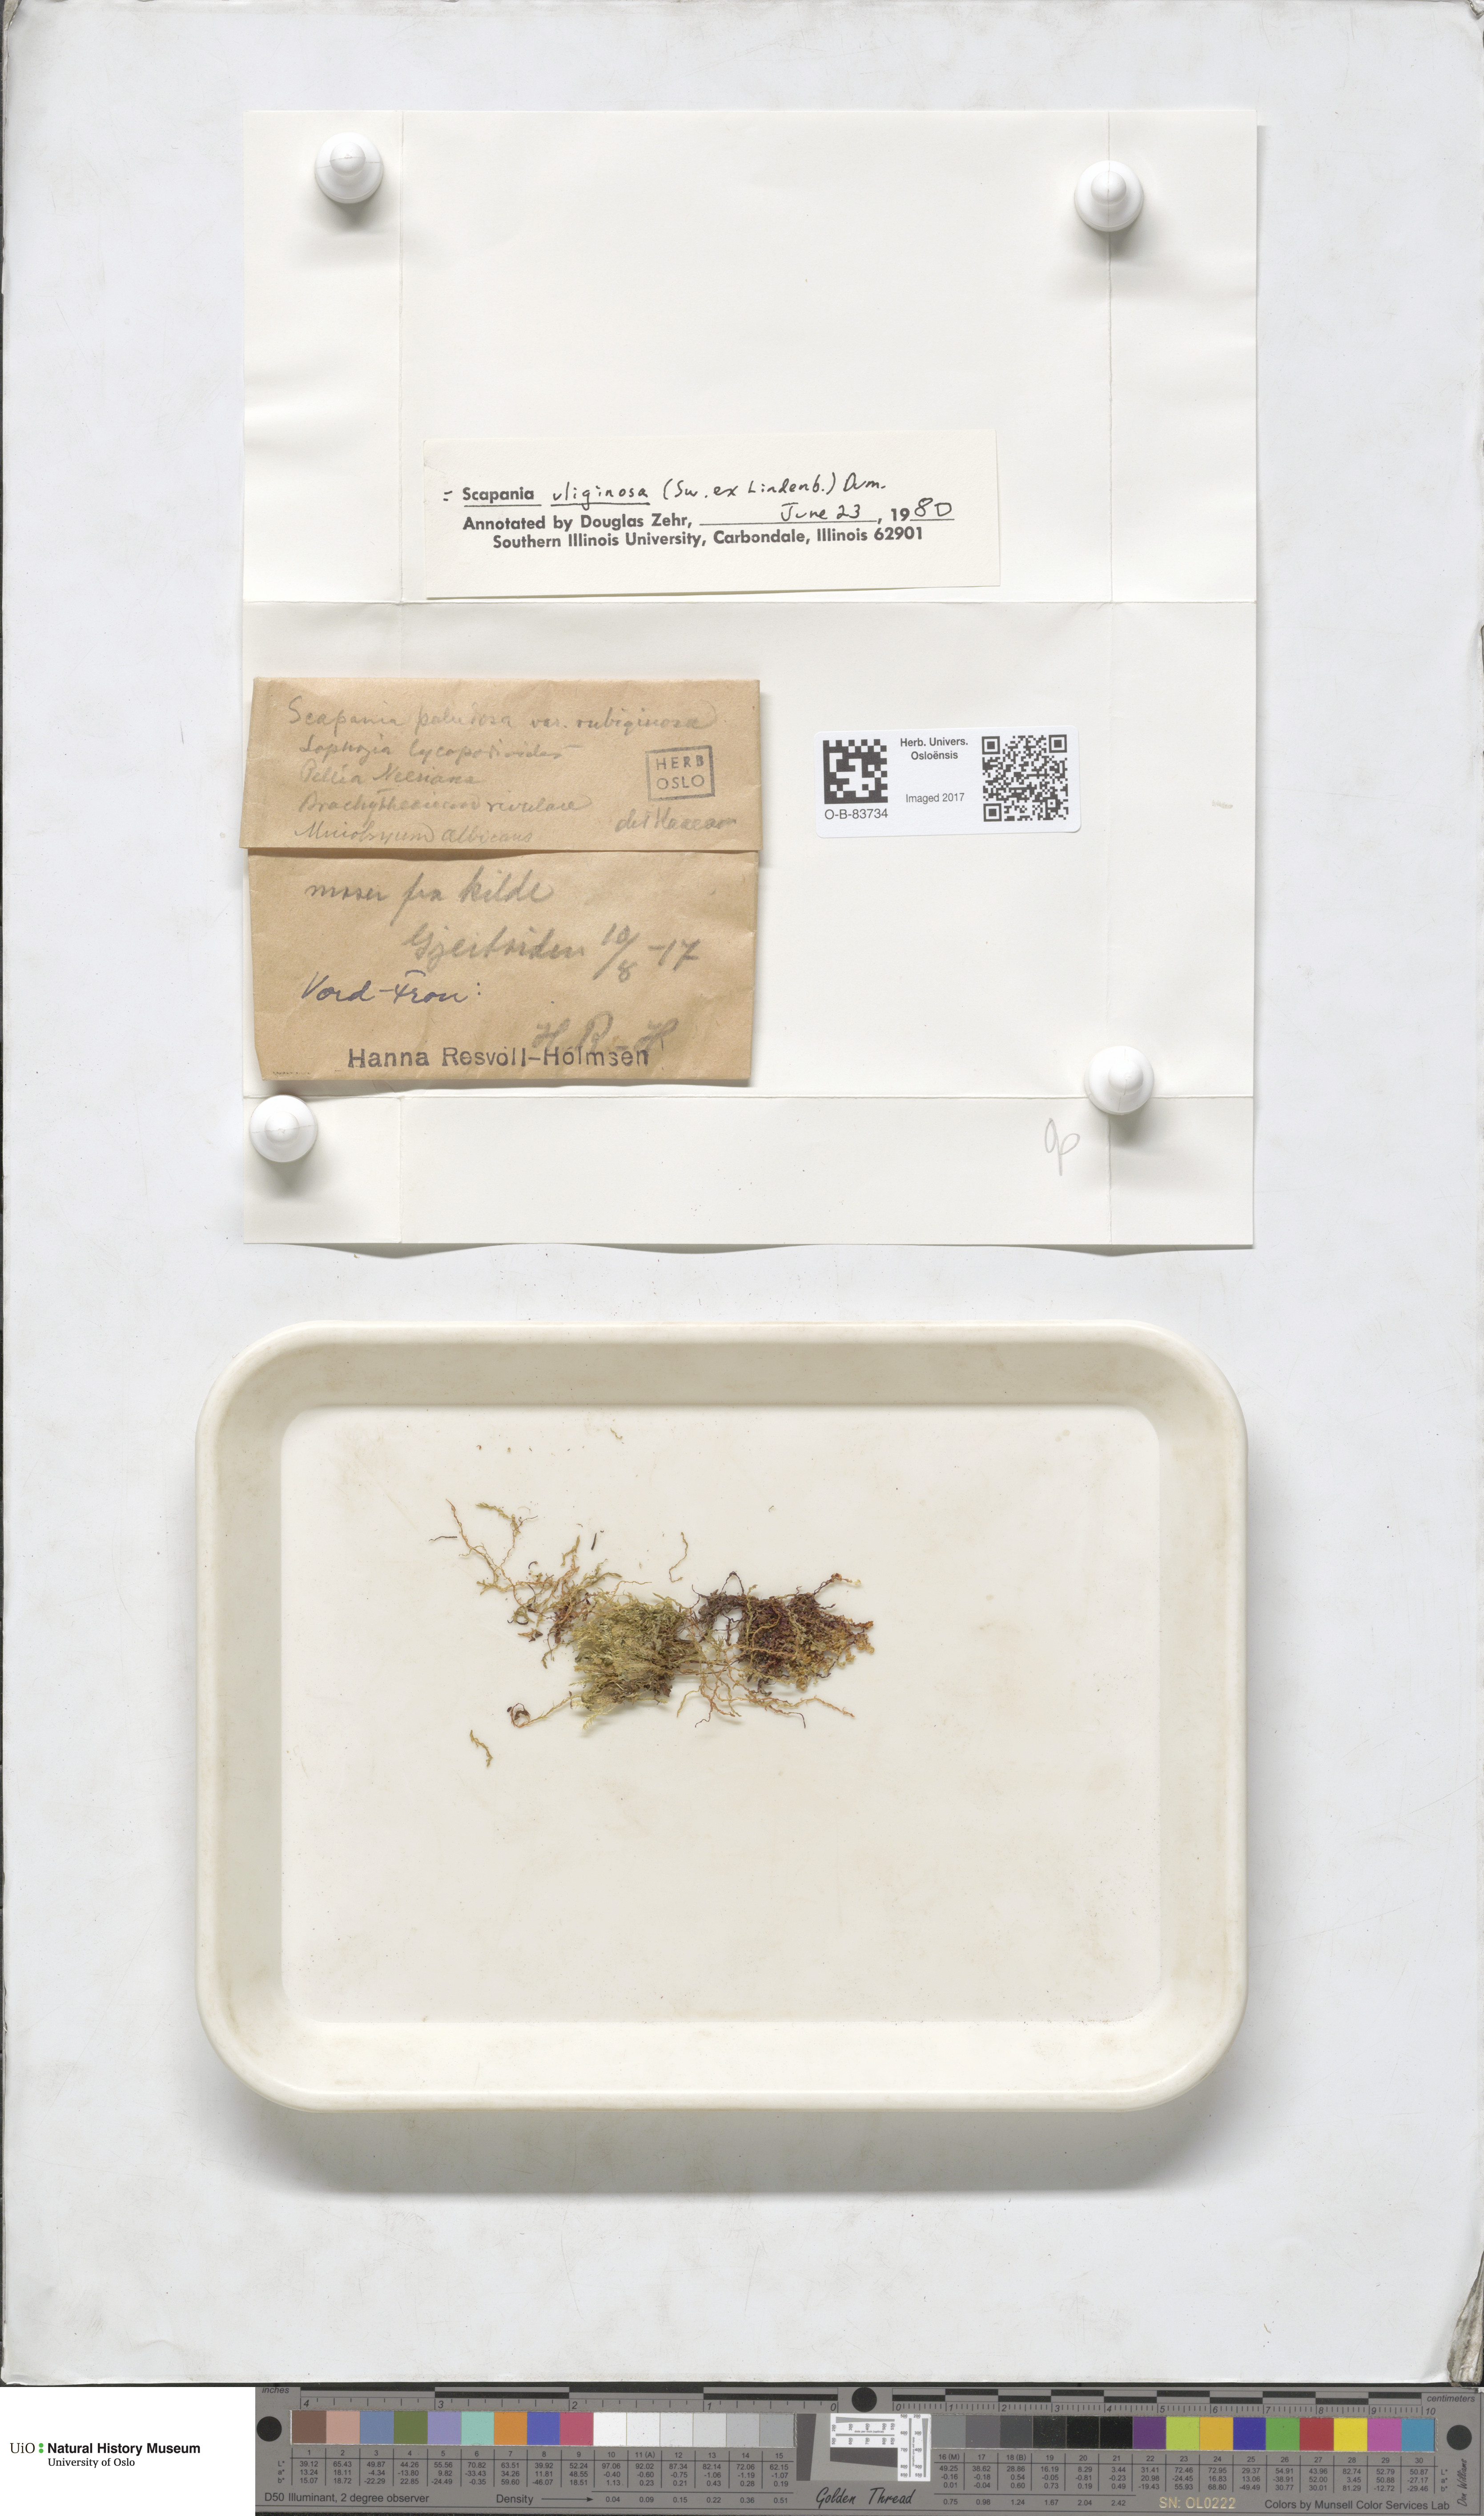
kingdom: Plantae
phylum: Marchantiophyta
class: Jungermanniopsida
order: Jungermanniales
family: Scapaniaceae
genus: Scapania
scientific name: Scapania uliginosa
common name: Marsh earwort
